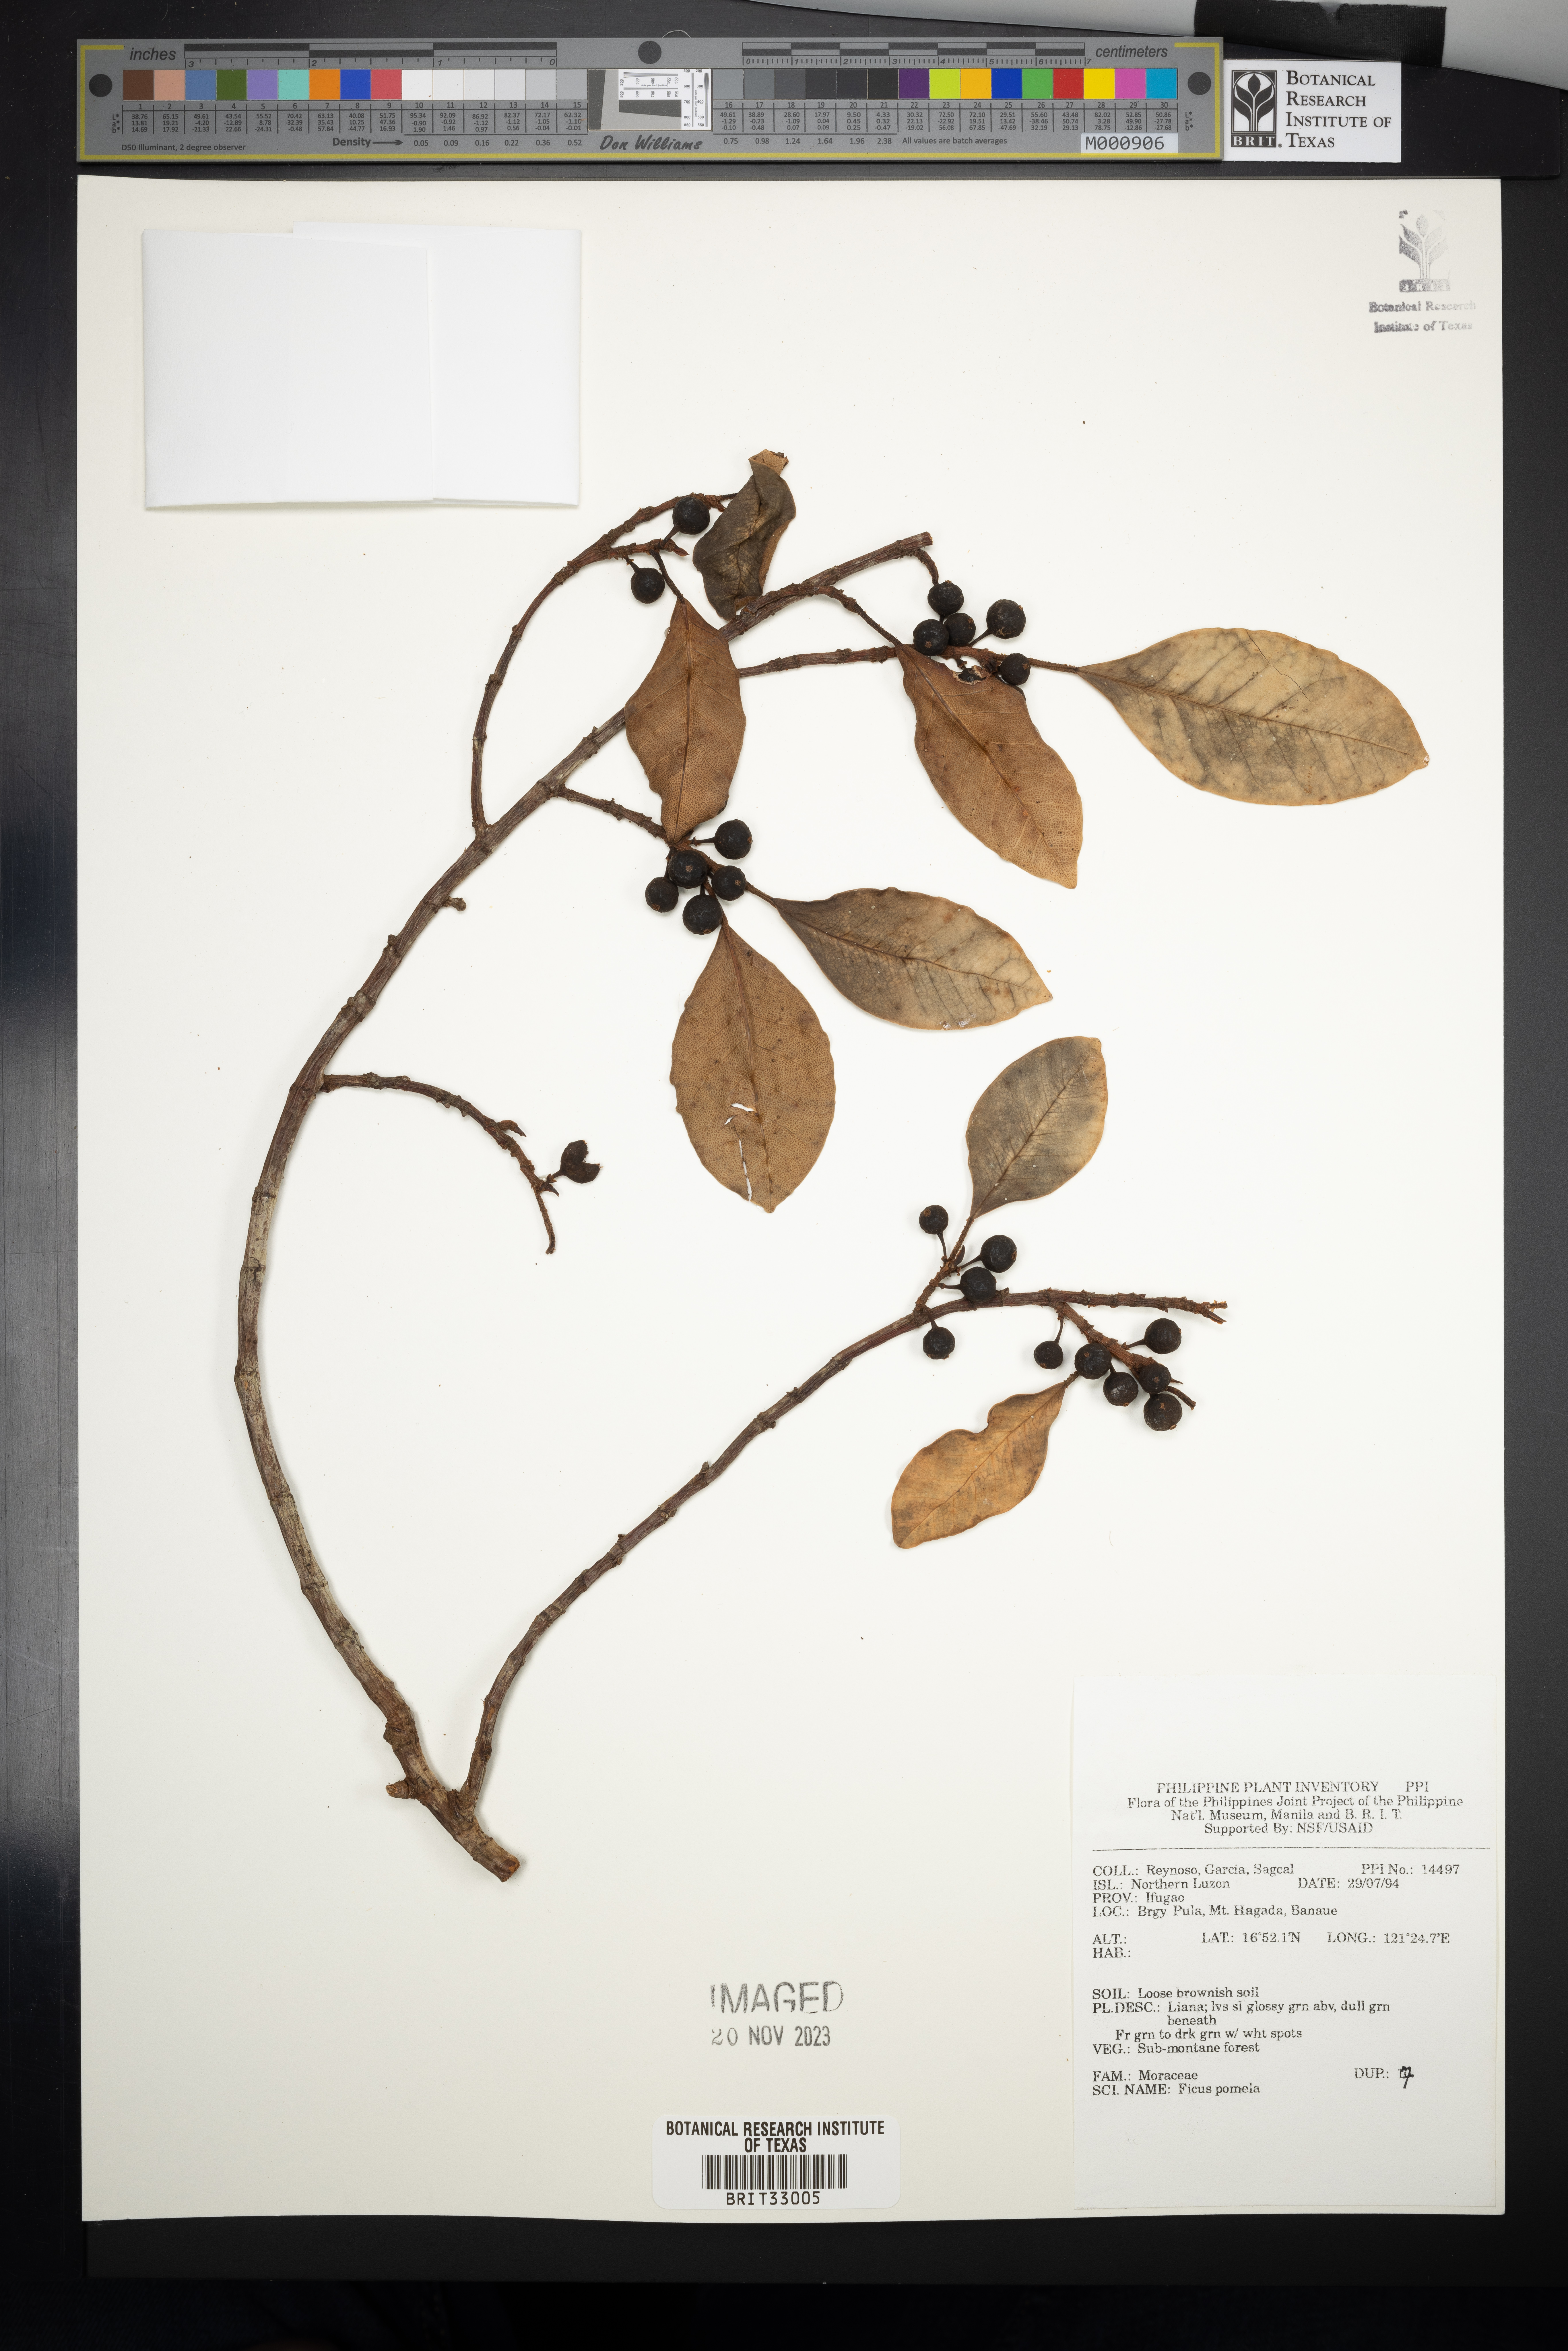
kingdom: Plantae
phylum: Tracheophyta
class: Magnoliopsida
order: Rosales
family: Moraceae
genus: Ficus
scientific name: Ficus pumila
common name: Climbingfig
